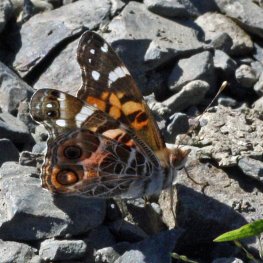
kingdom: Animalia
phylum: Arthropoda
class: Insecta
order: Lepidoptera
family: Nymphalidae
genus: Vanessa
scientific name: Vanessa virginiensis
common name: American Lady
